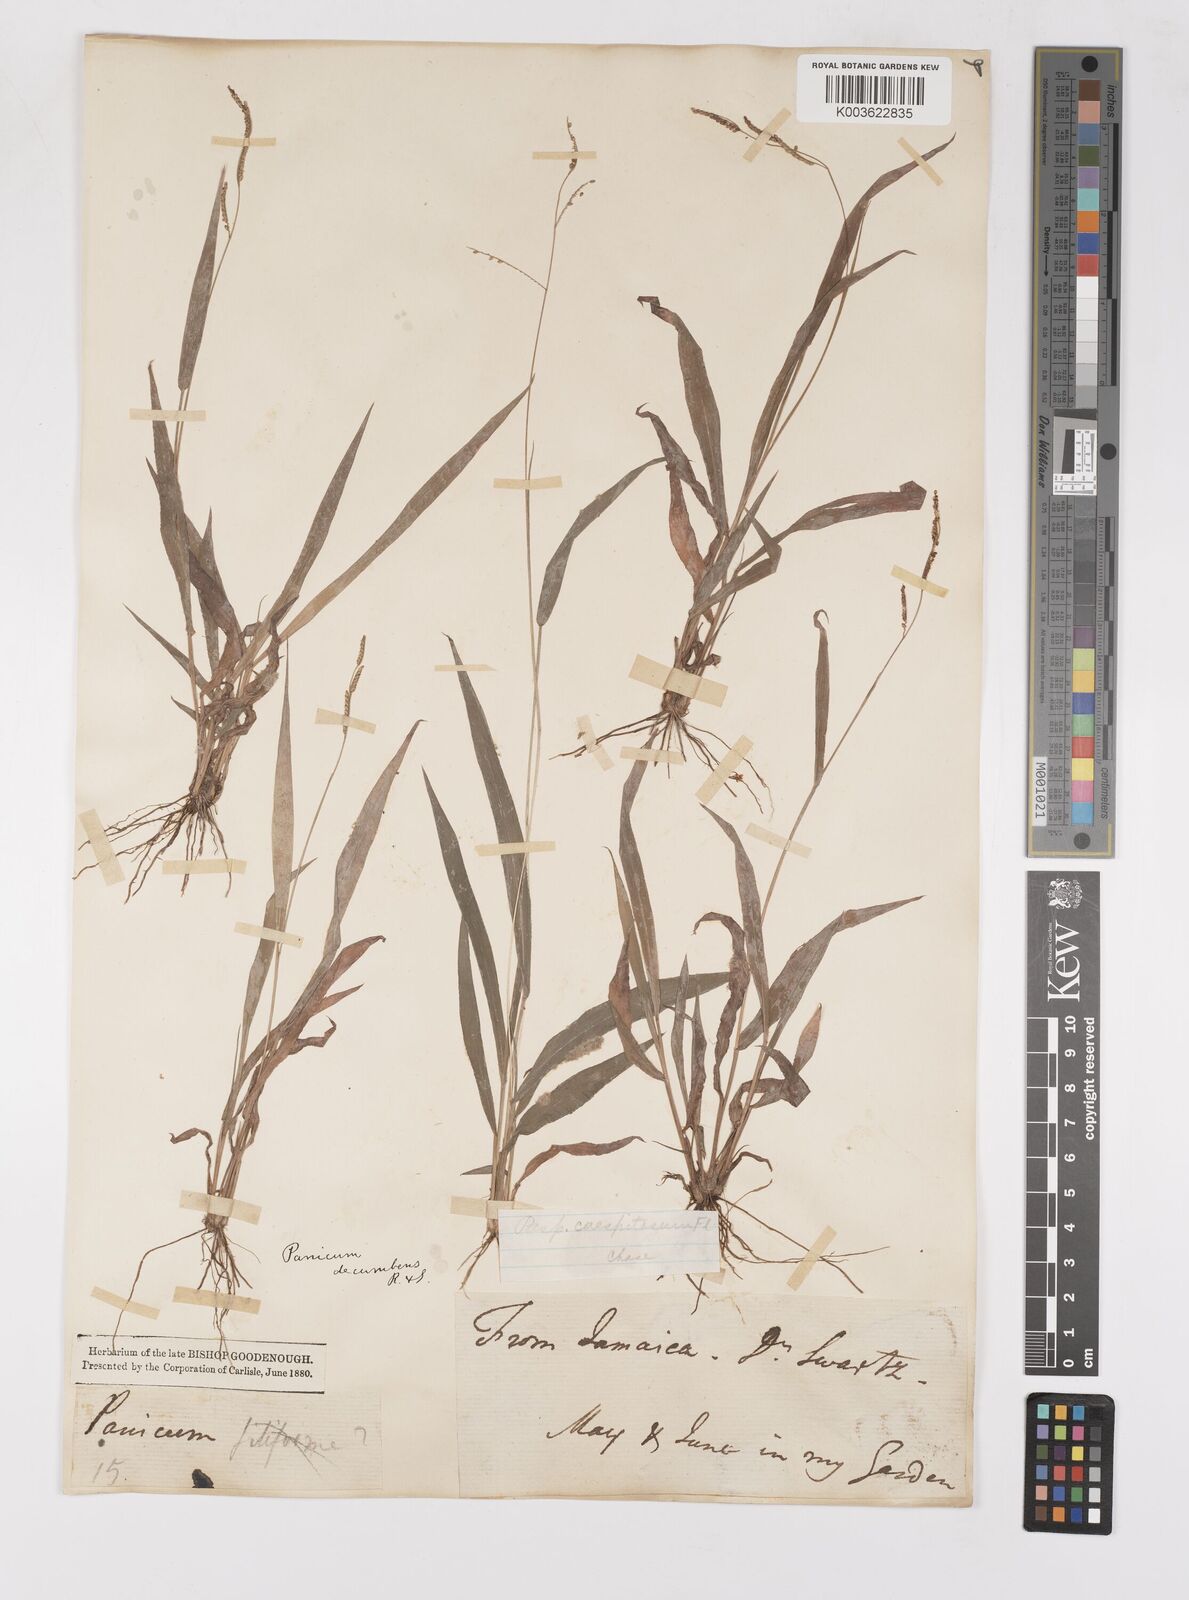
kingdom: Plantae
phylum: Tracheophyta
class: Liliopsida
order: Poales
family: Poaceae
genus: Paspalum
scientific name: Paspalum caespitosum
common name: Blue crowngrass
